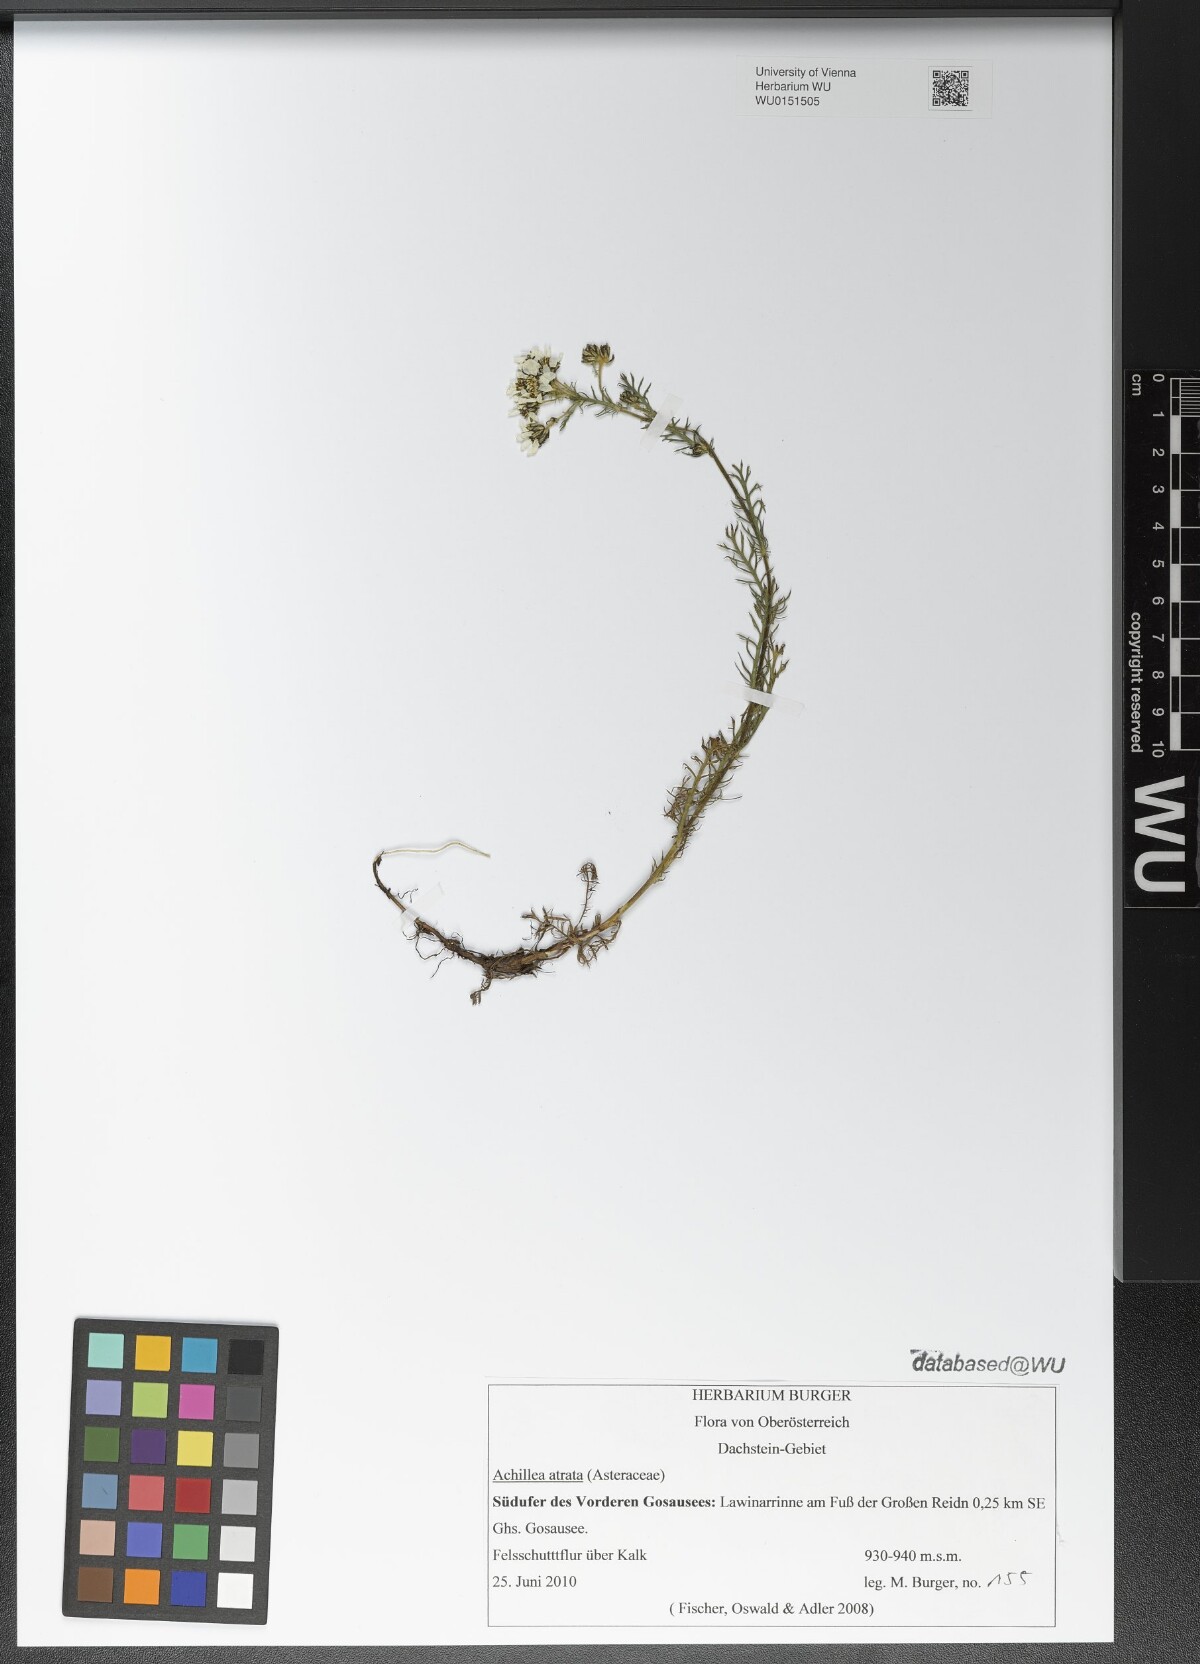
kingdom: Plantae
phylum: Tracheophyta
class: Magnoliopsida
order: Asterales
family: Asteraceae
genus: Achillea
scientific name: Achillea atrata
